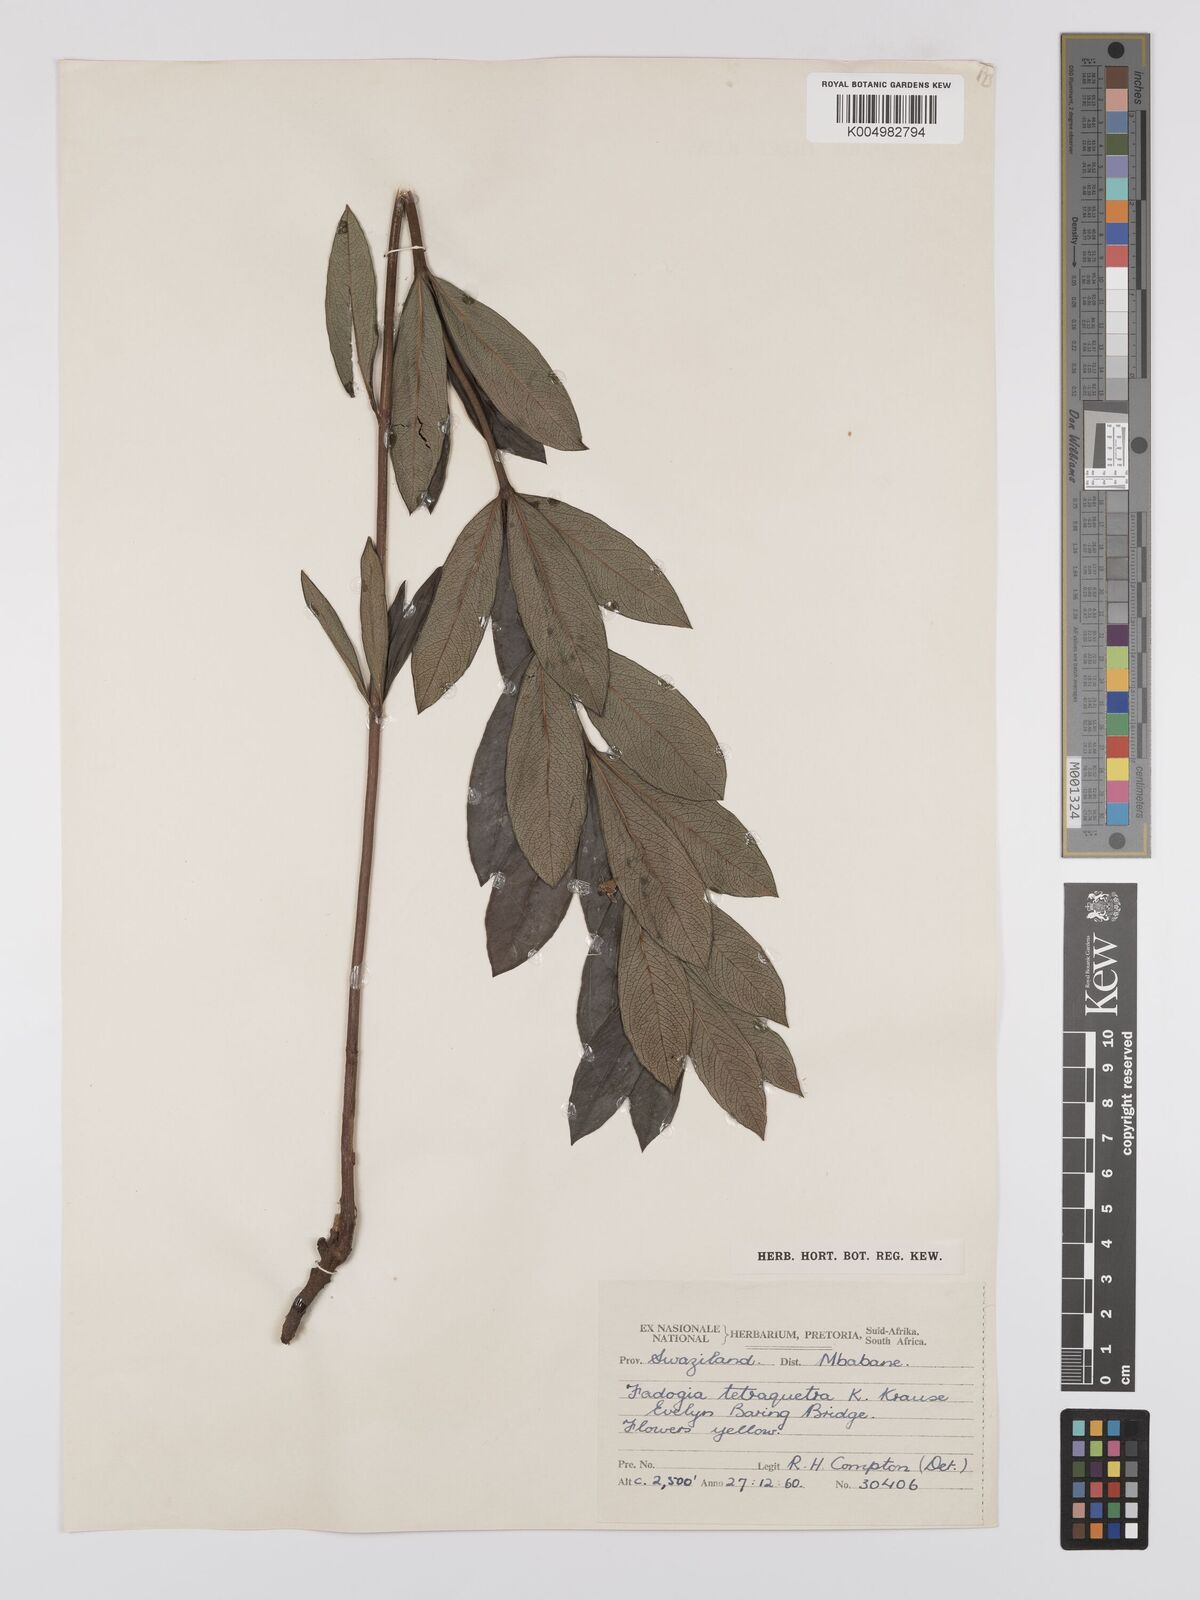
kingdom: Plantae
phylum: Tracheophyta
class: Magnoliopsida
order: Gentianales
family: Rubiaceae
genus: Fadogia
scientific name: Fadogia tetraquetra
